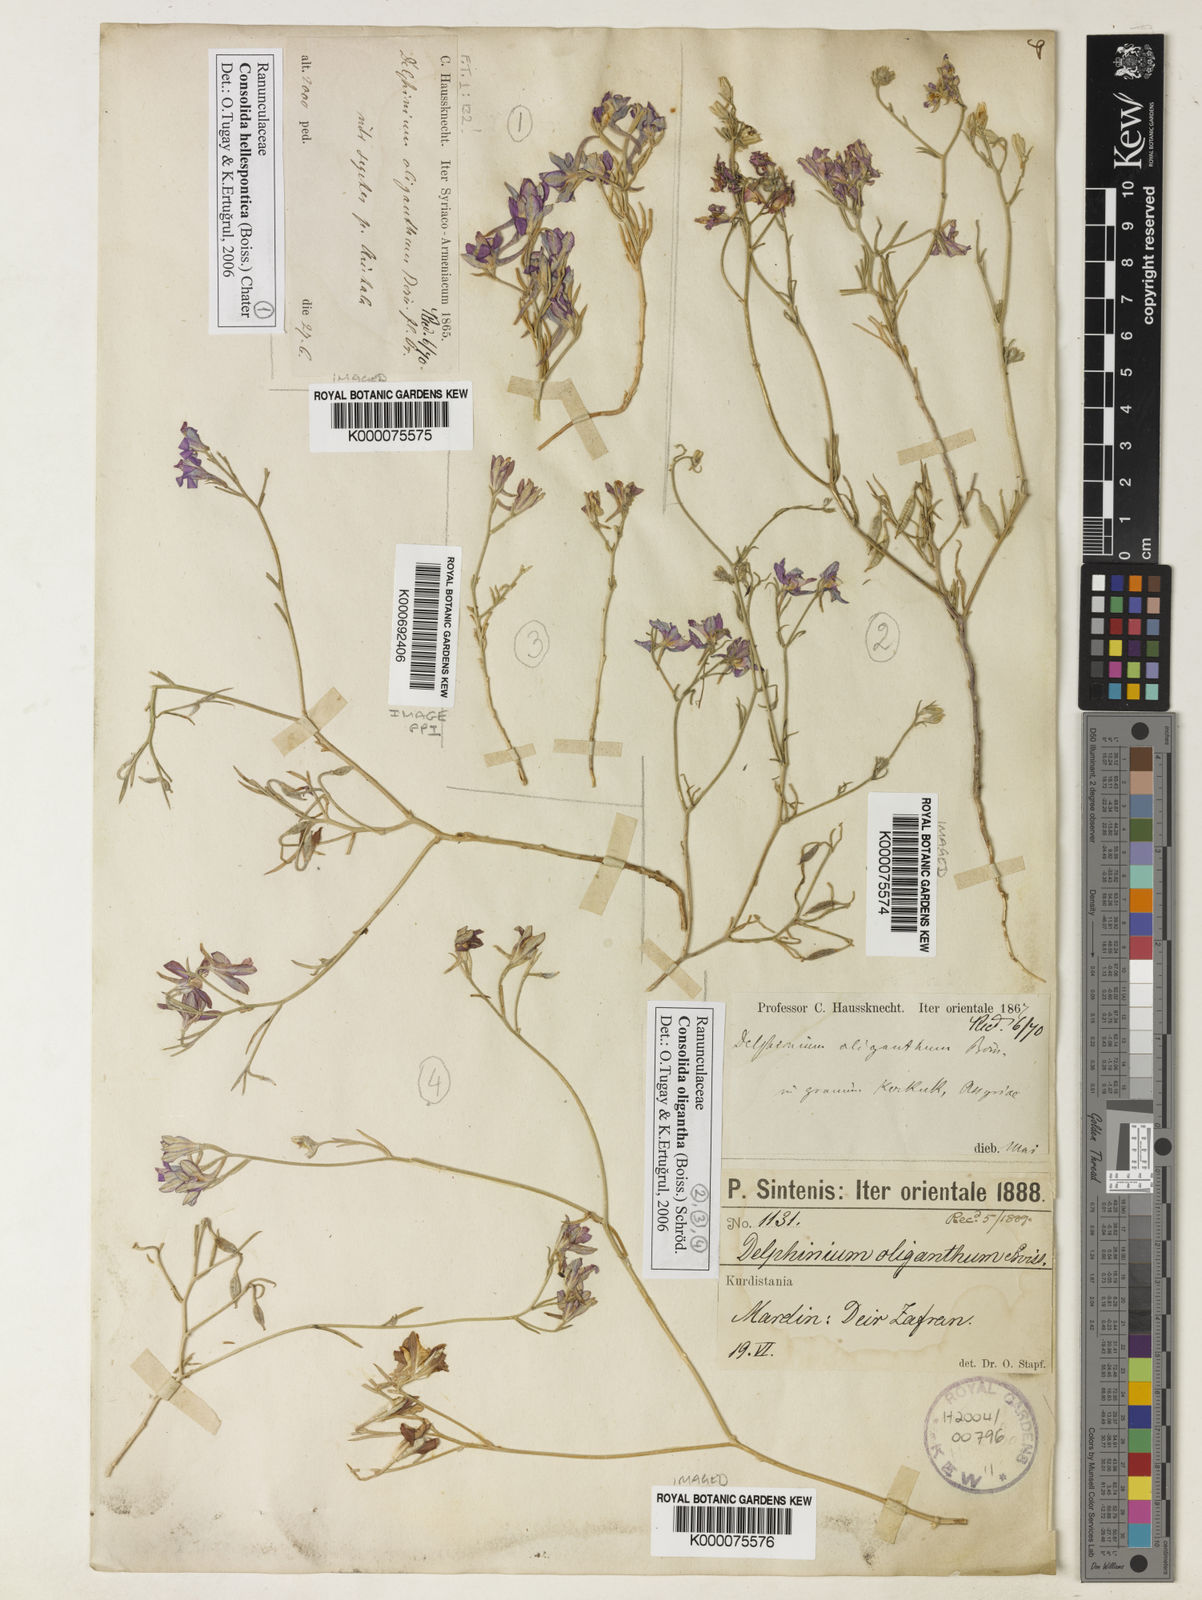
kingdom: Plantae
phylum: Tracheophyta
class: Magnoliopsida
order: Ranunculales
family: Ranunculaceae
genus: Delphinium
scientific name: Delphinium pusillum
